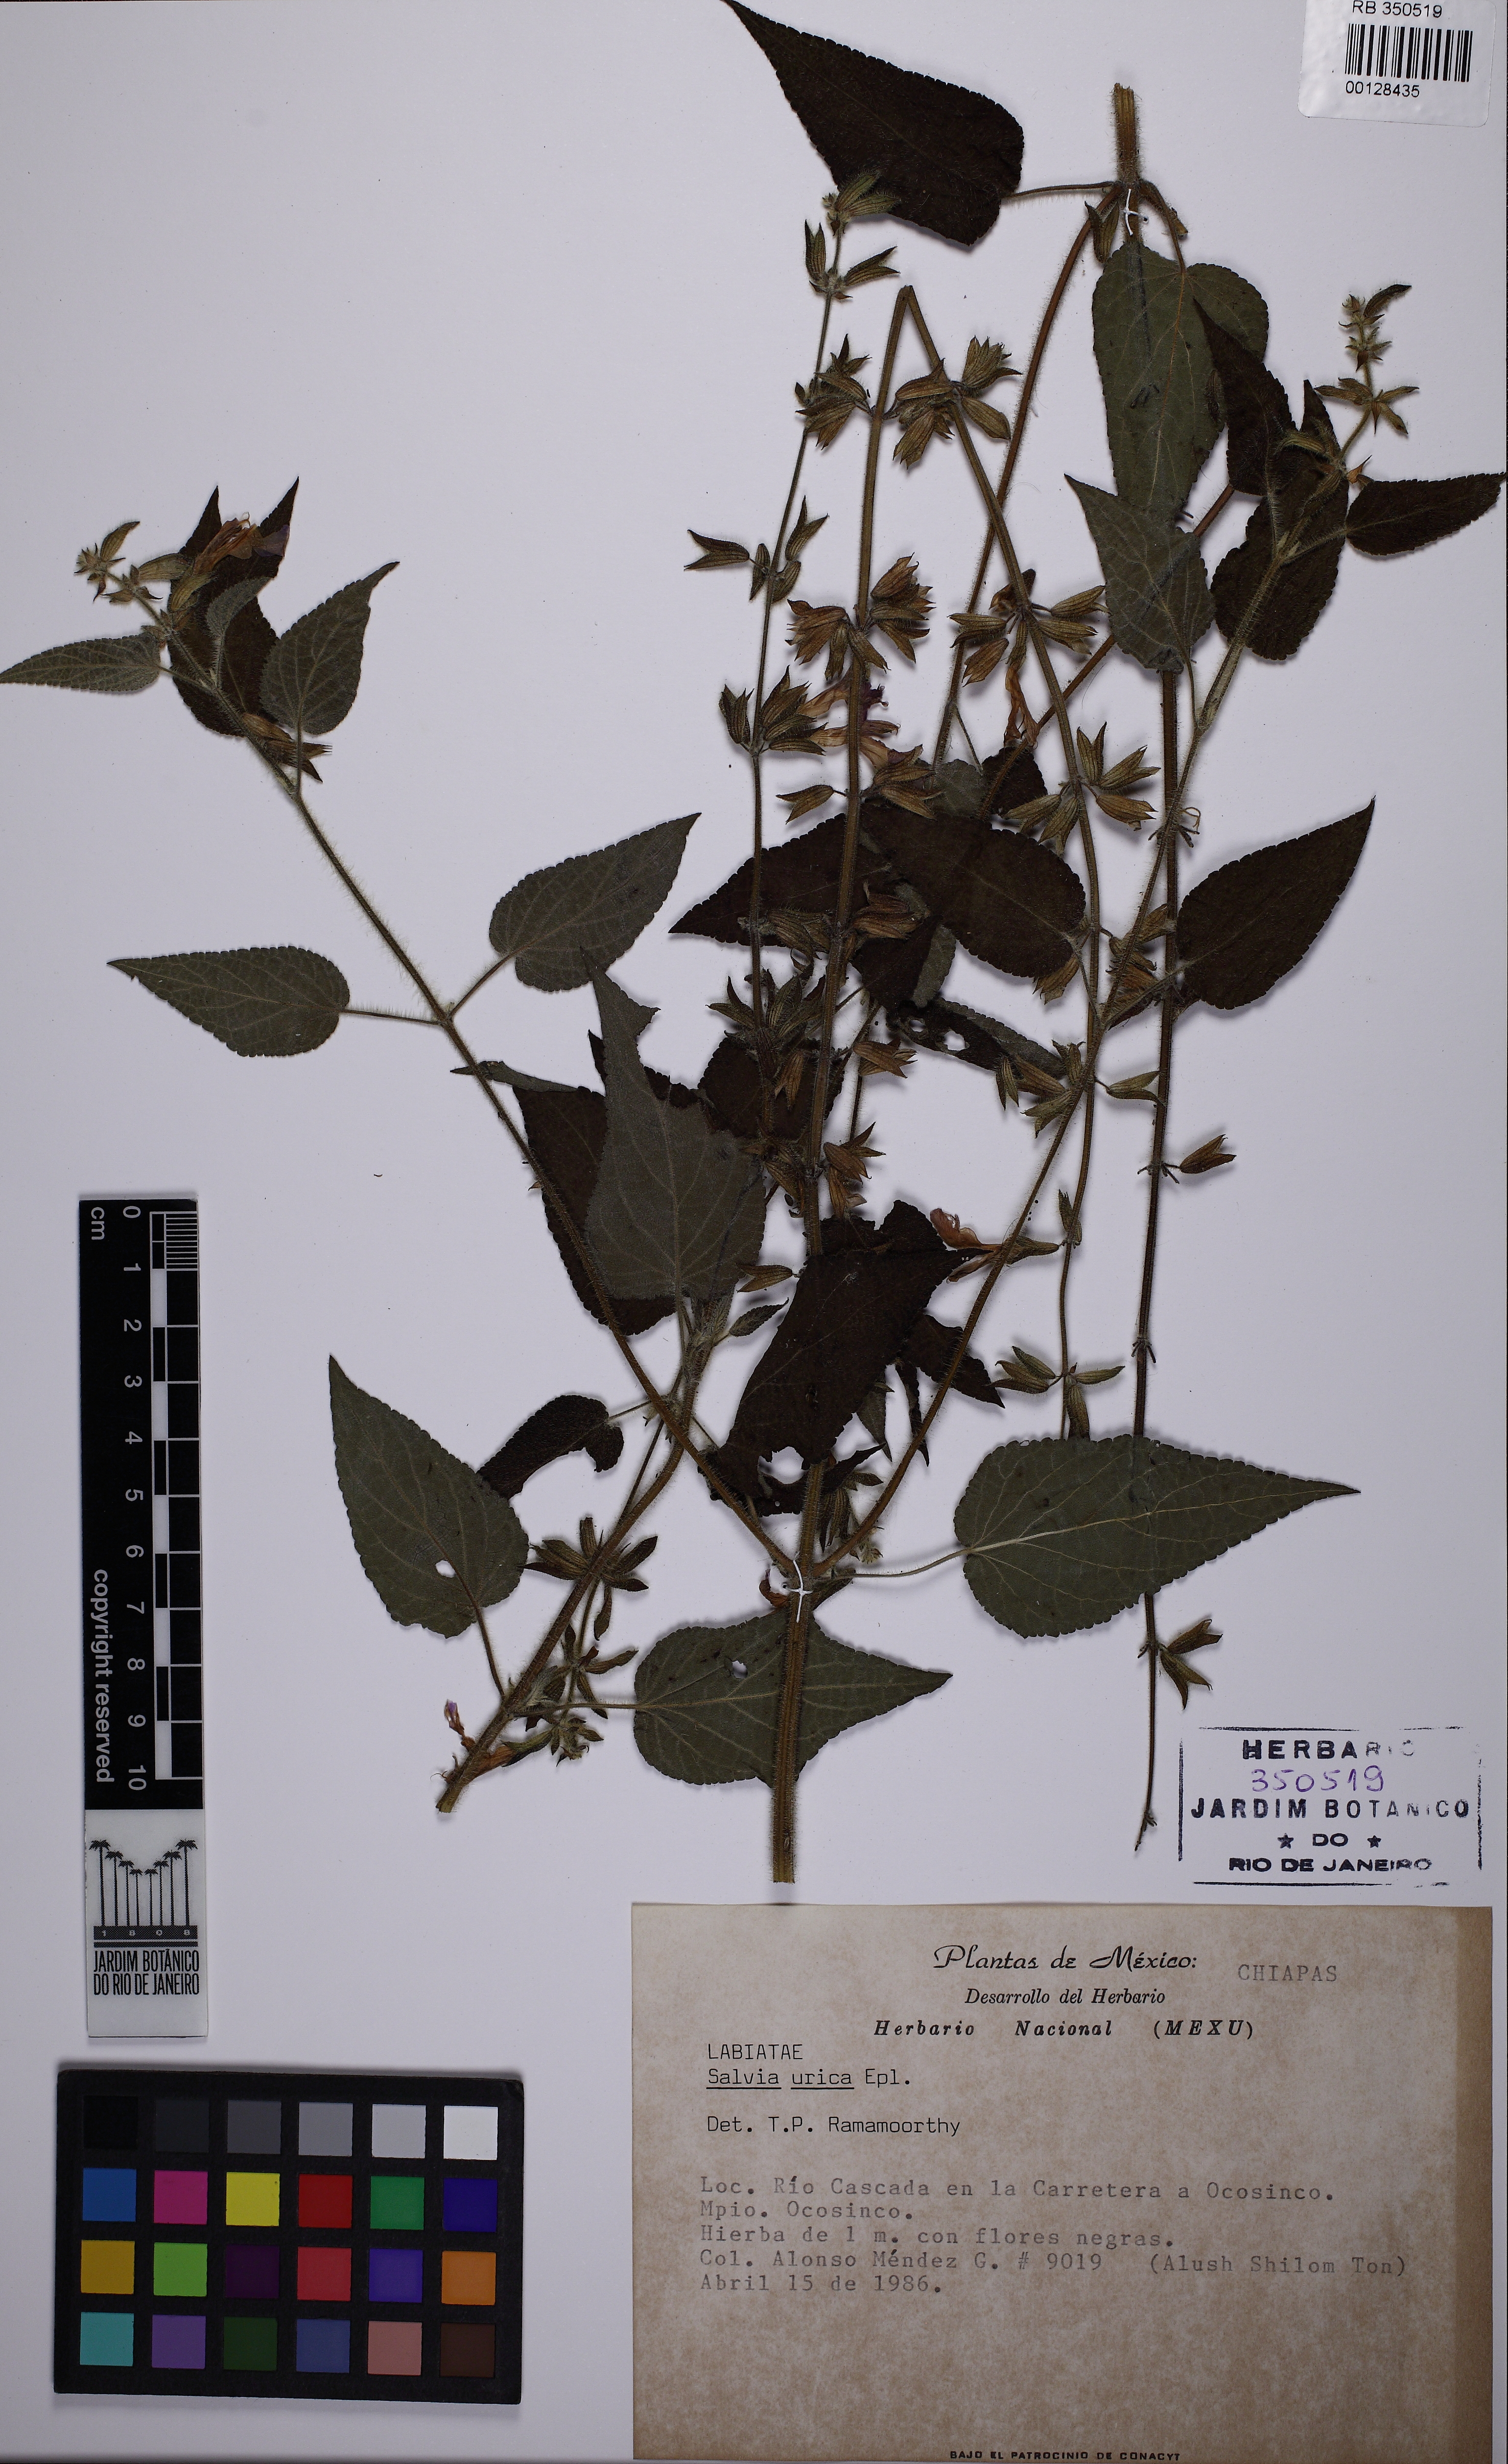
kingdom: Plantae
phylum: Tracheophyta
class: Magnoliopsida
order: Lamiales
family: Lamiaceae
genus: Salvia
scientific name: Salvia urica
